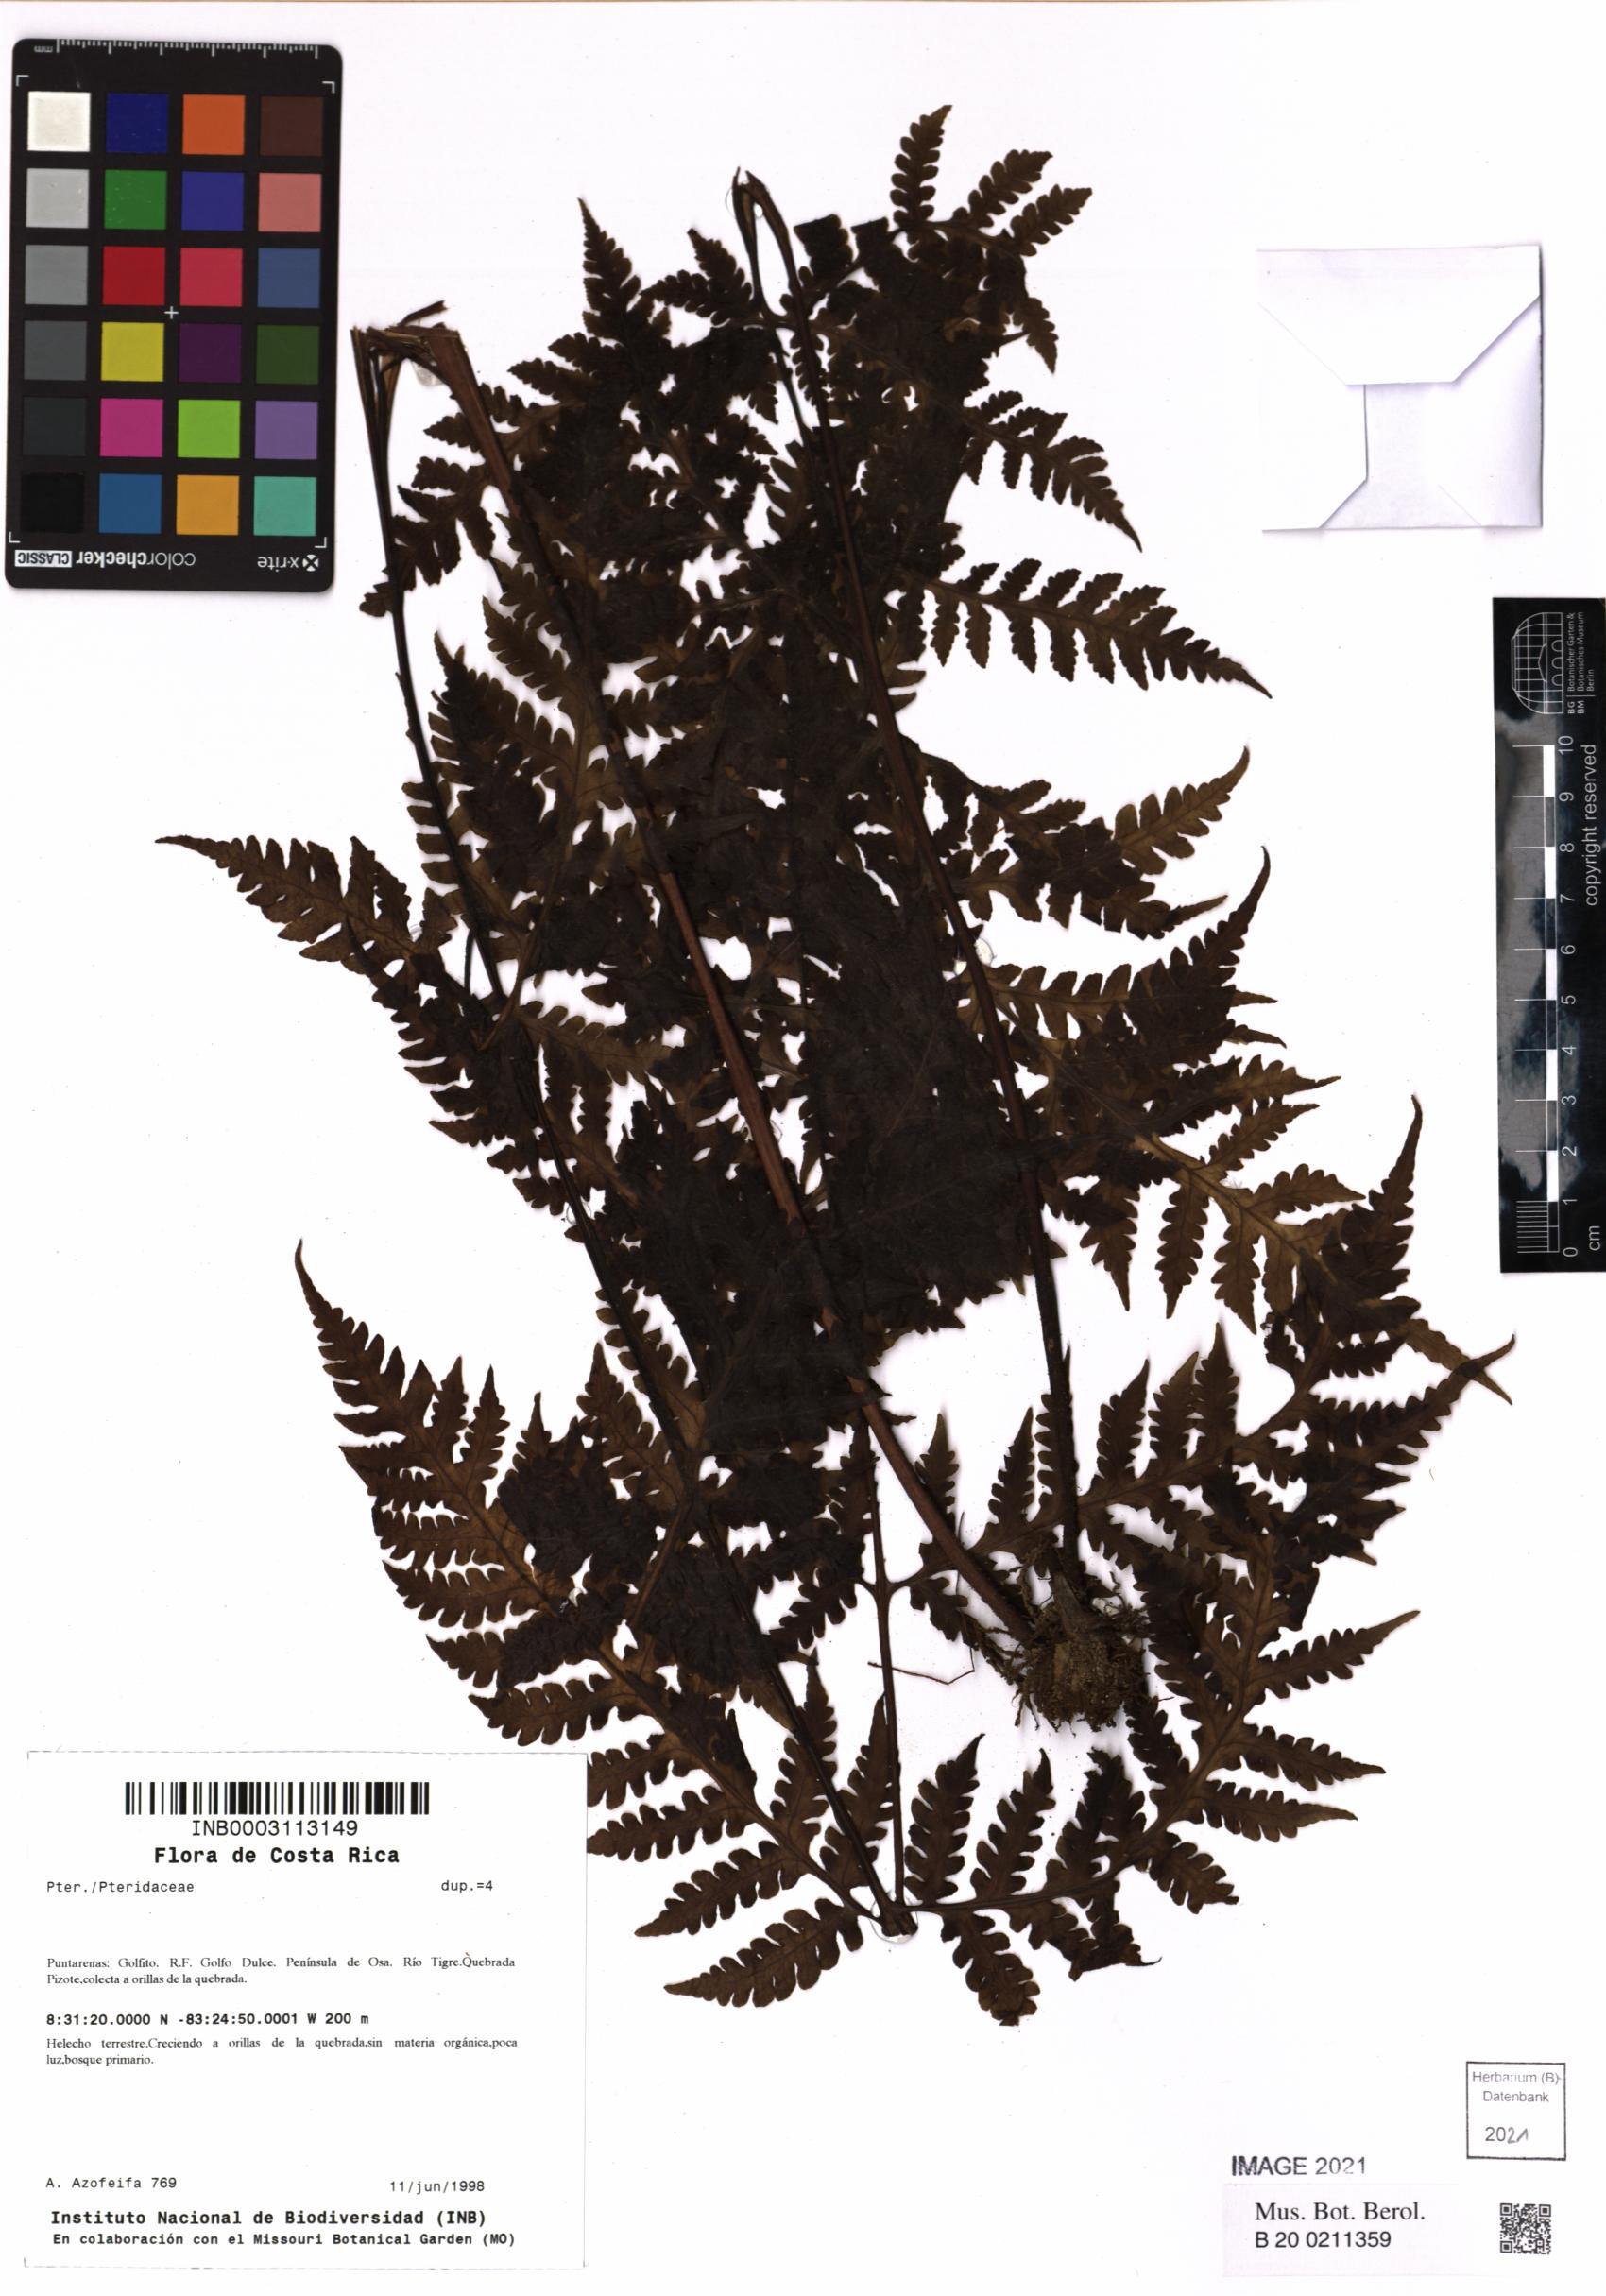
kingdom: Plantae
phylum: Tracheophyta
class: Polypodiopsida
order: Polypodiales
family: Pteridaceae
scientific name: Pteridaceae
